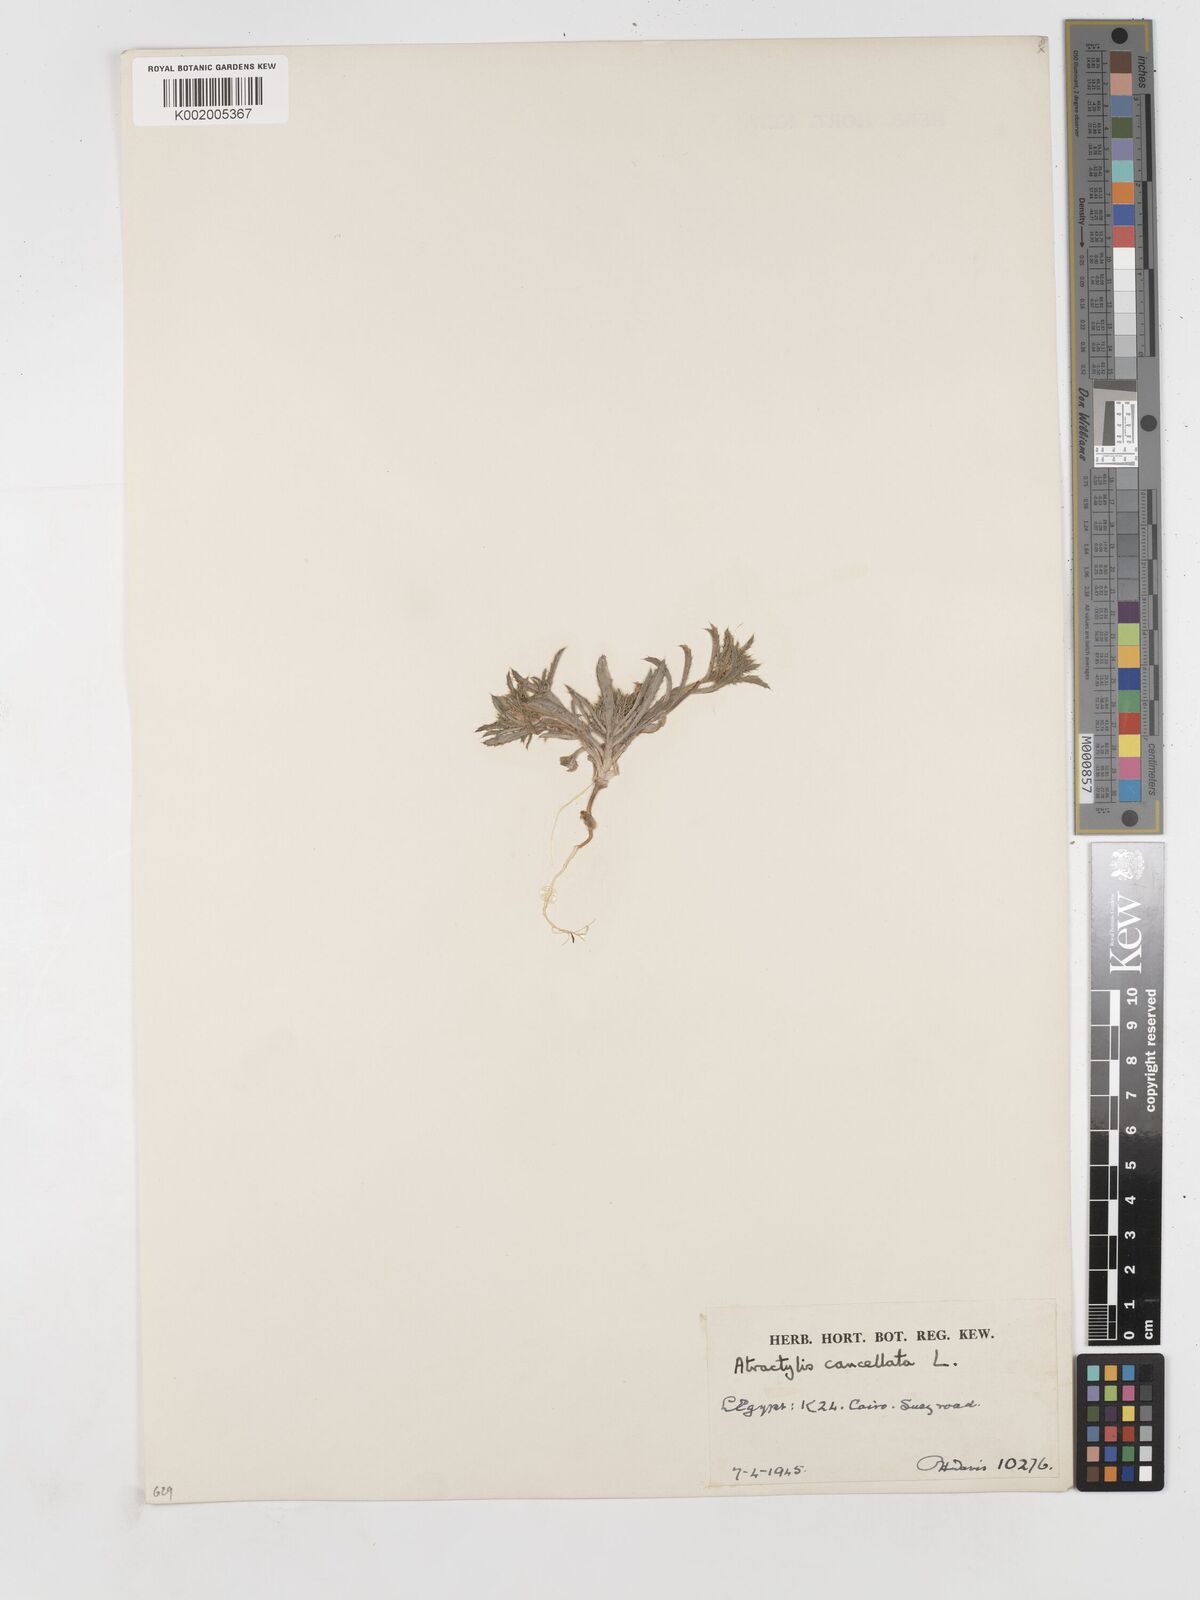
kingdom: Plantae
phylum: Tracheophyta
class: Magnoliopsida
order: Asterales
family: Asteraceae
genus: Atractylis
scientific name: Atractylis cancellata
